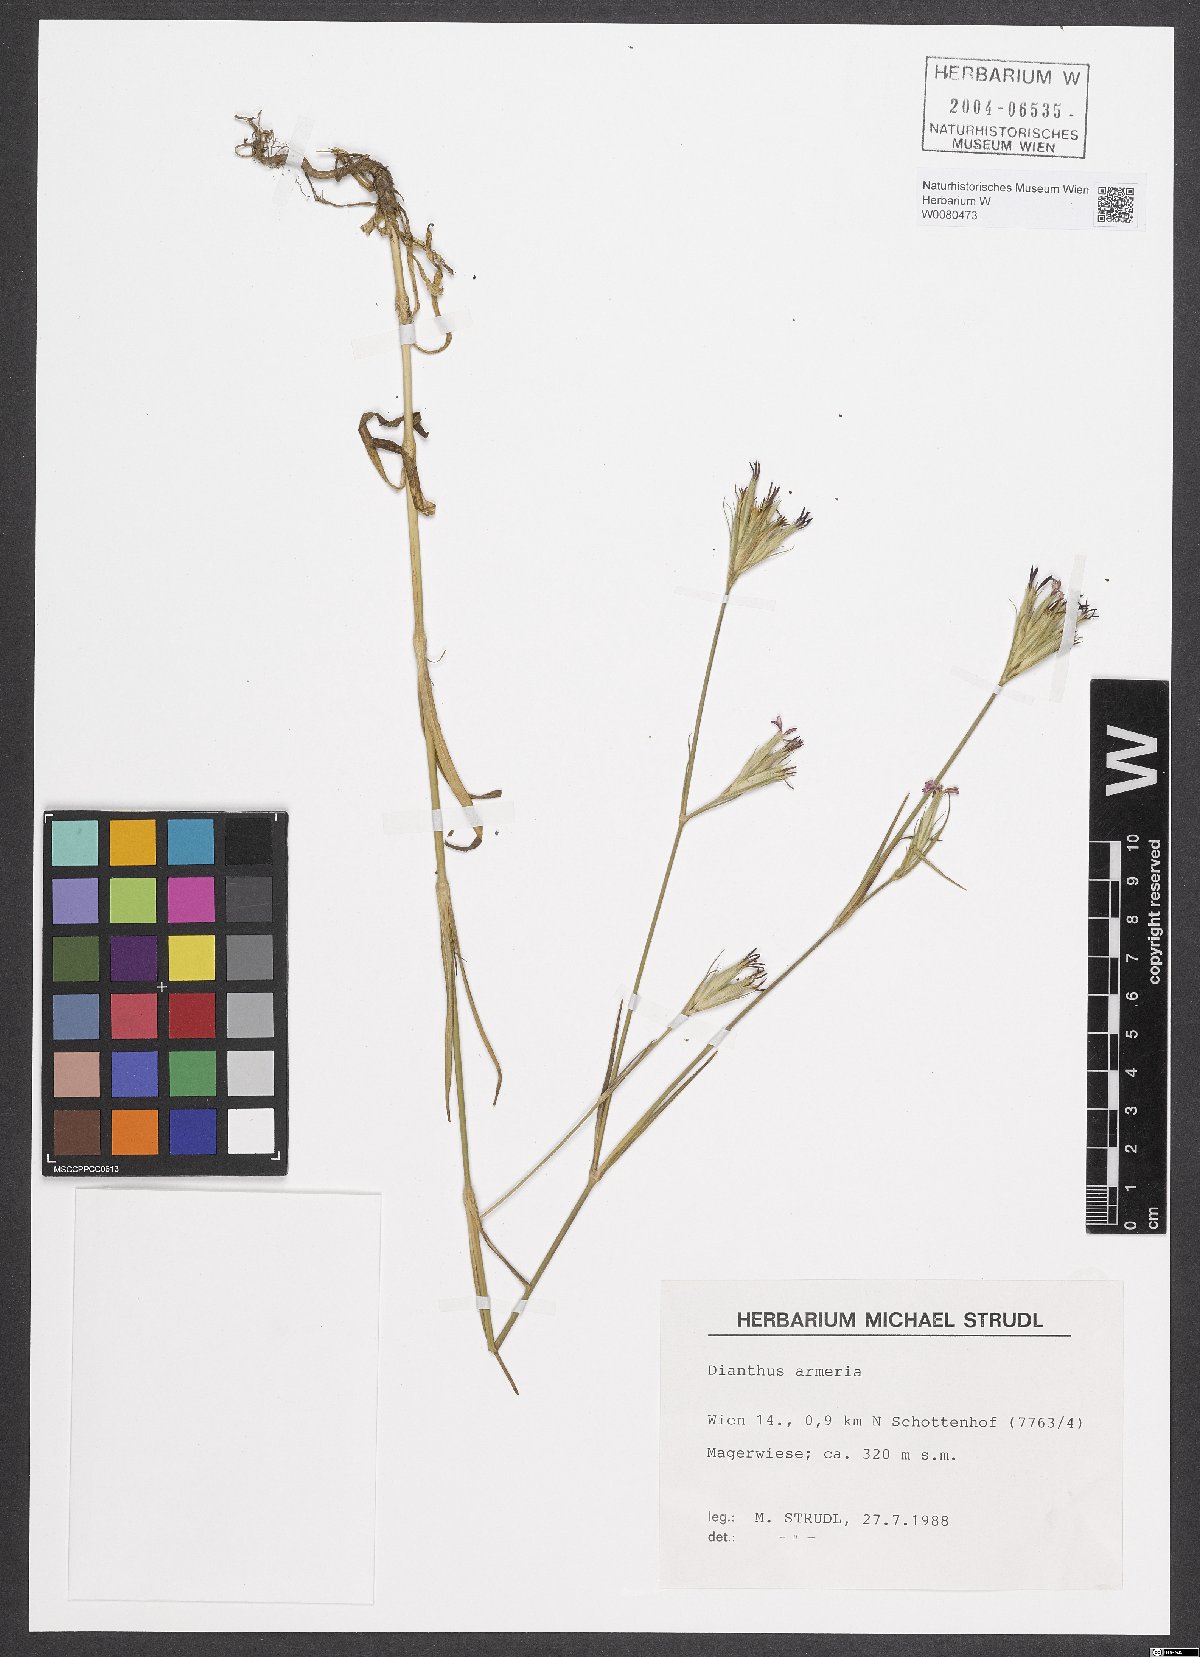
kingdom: Plantae
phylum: Tracheophyta
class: Magnoliopsida
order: Caryophyllales
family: Caryophyllaceae
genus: Dianthus
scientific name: Dianthus armeria
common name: Deptford pink
